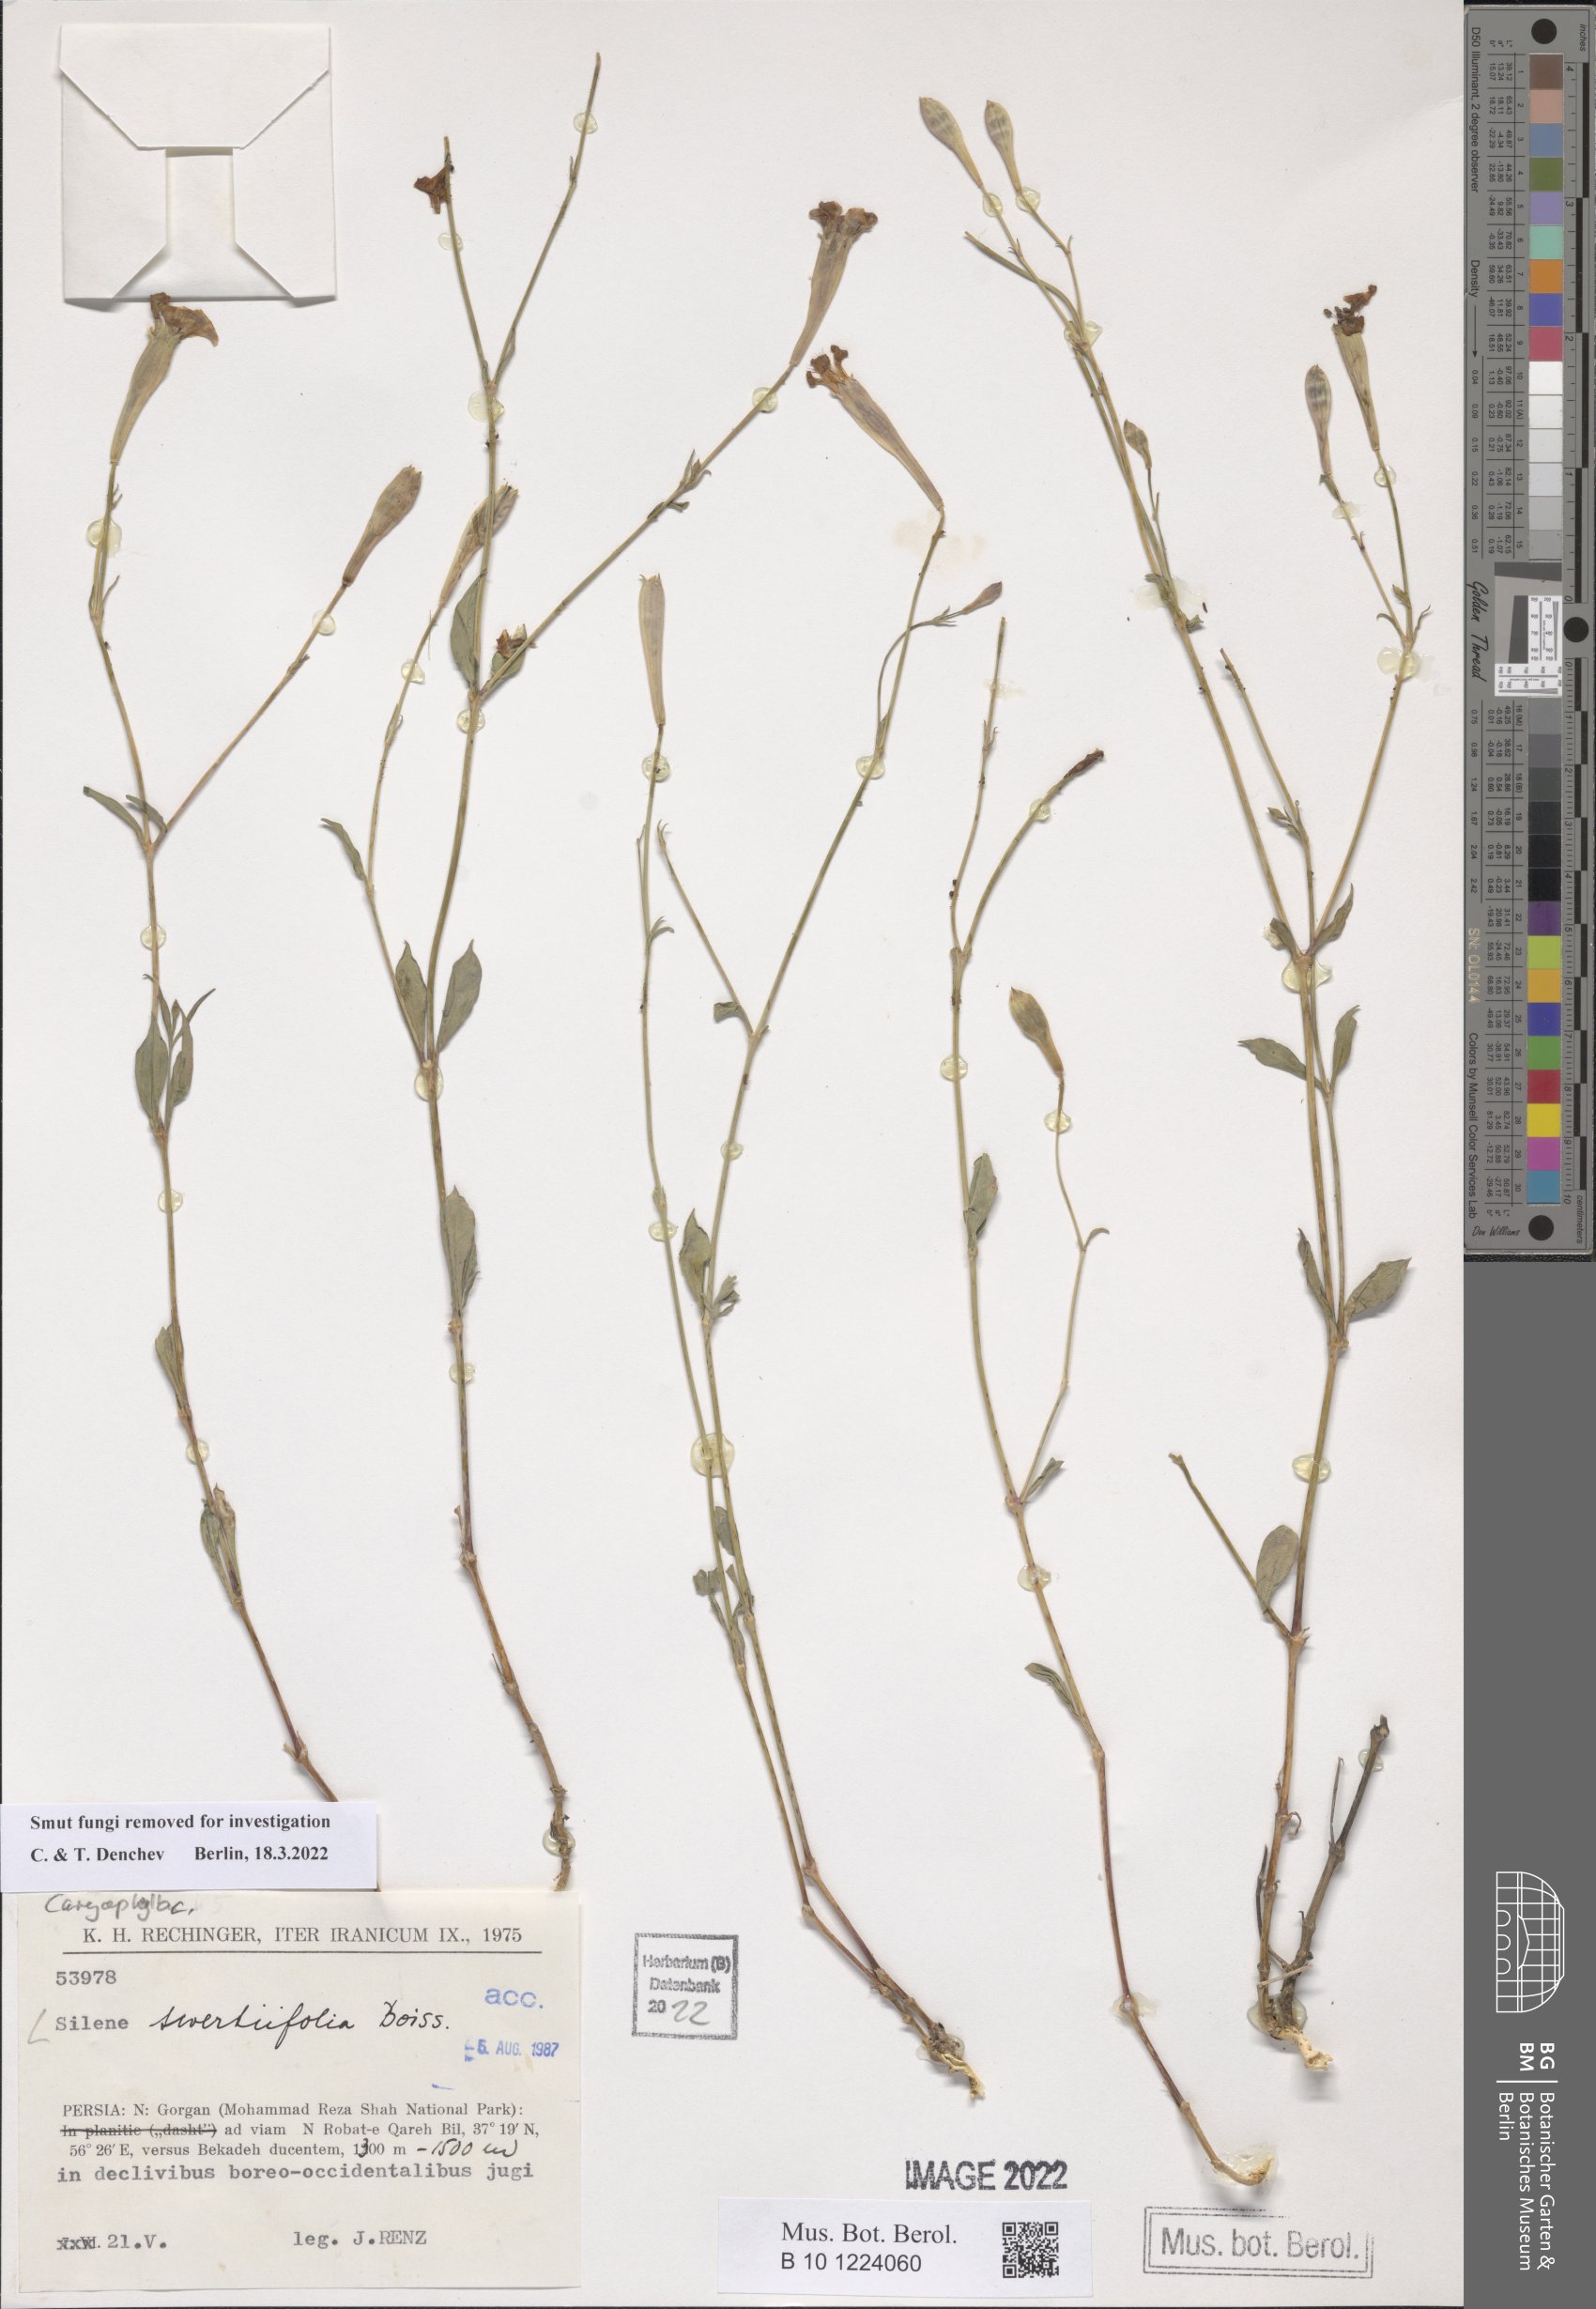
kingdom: Plantae
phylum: Tracheophyta
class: Magnoliopsida
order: Caryophyllales
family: Caryophyllaceae
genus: Silene
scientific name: Silene swertiifolia
